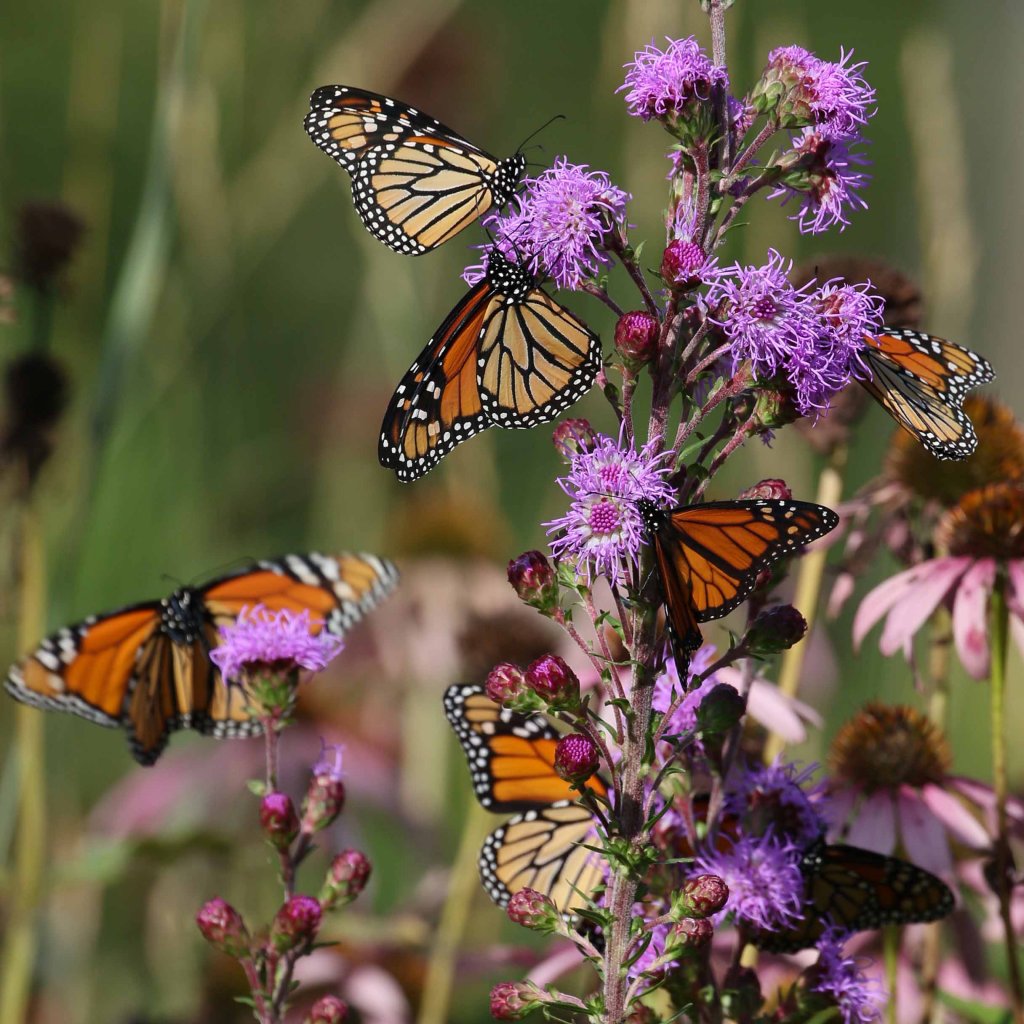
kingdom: Animalia
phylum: Arthropoda
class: Insecta
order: Lepidoptera
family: Nymphalidae
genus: Danaus
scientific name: Danaus plexippus
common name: Monarch
